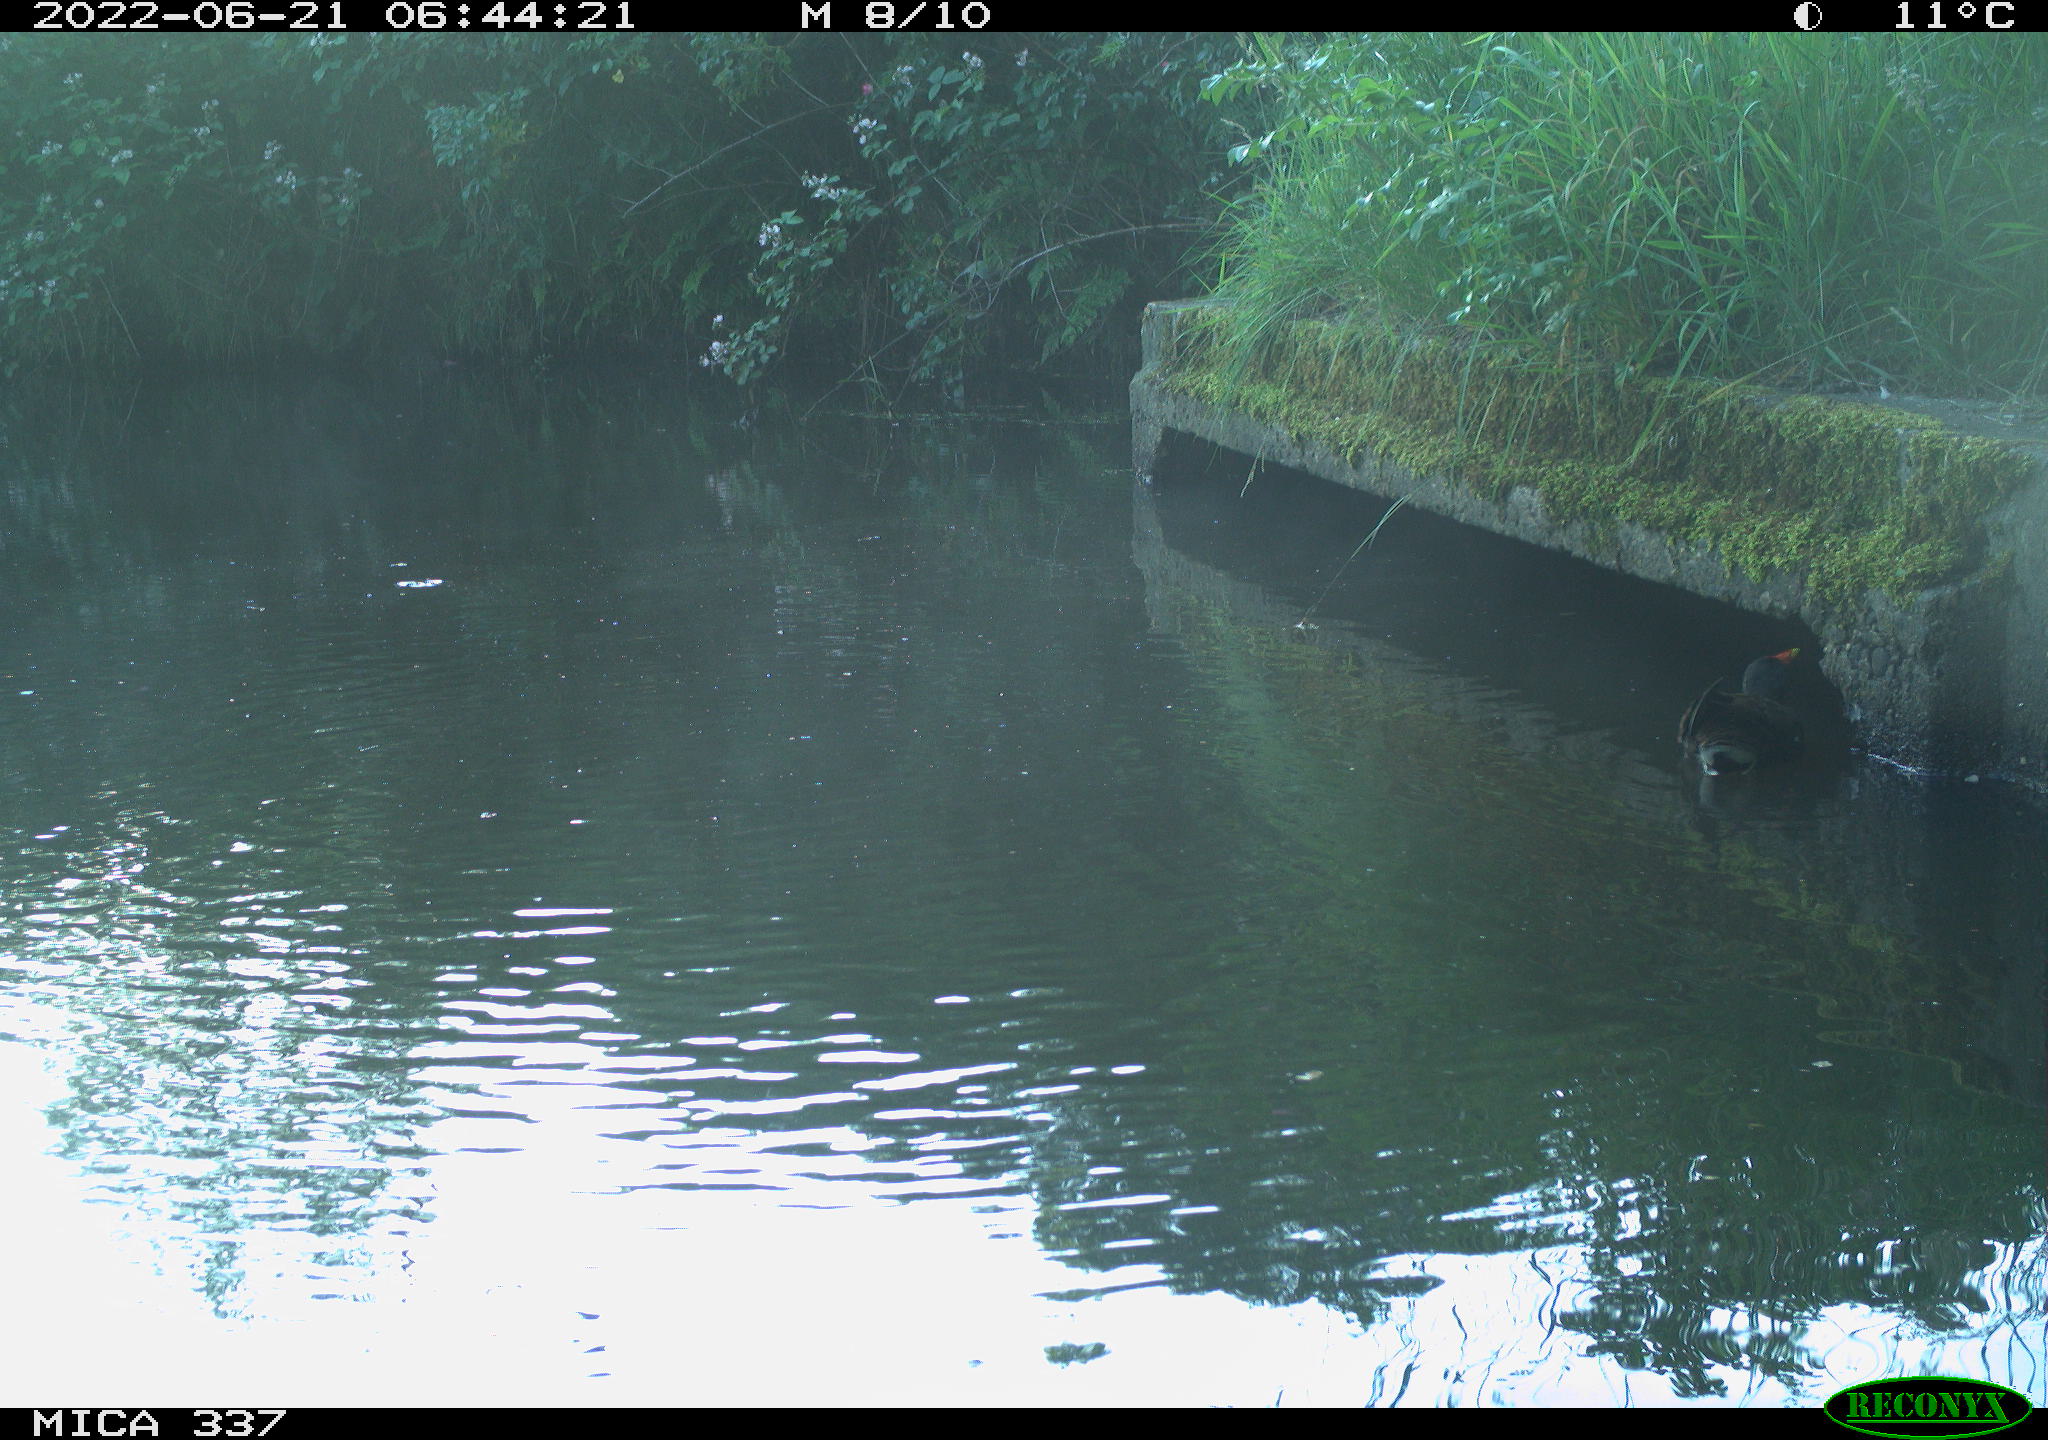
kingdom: Animalia
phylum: Chordata
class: Aves
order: Gruiformes
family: Rallidae
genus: Gallinula
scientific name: Gallinula chloropus
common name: Common moorhen
